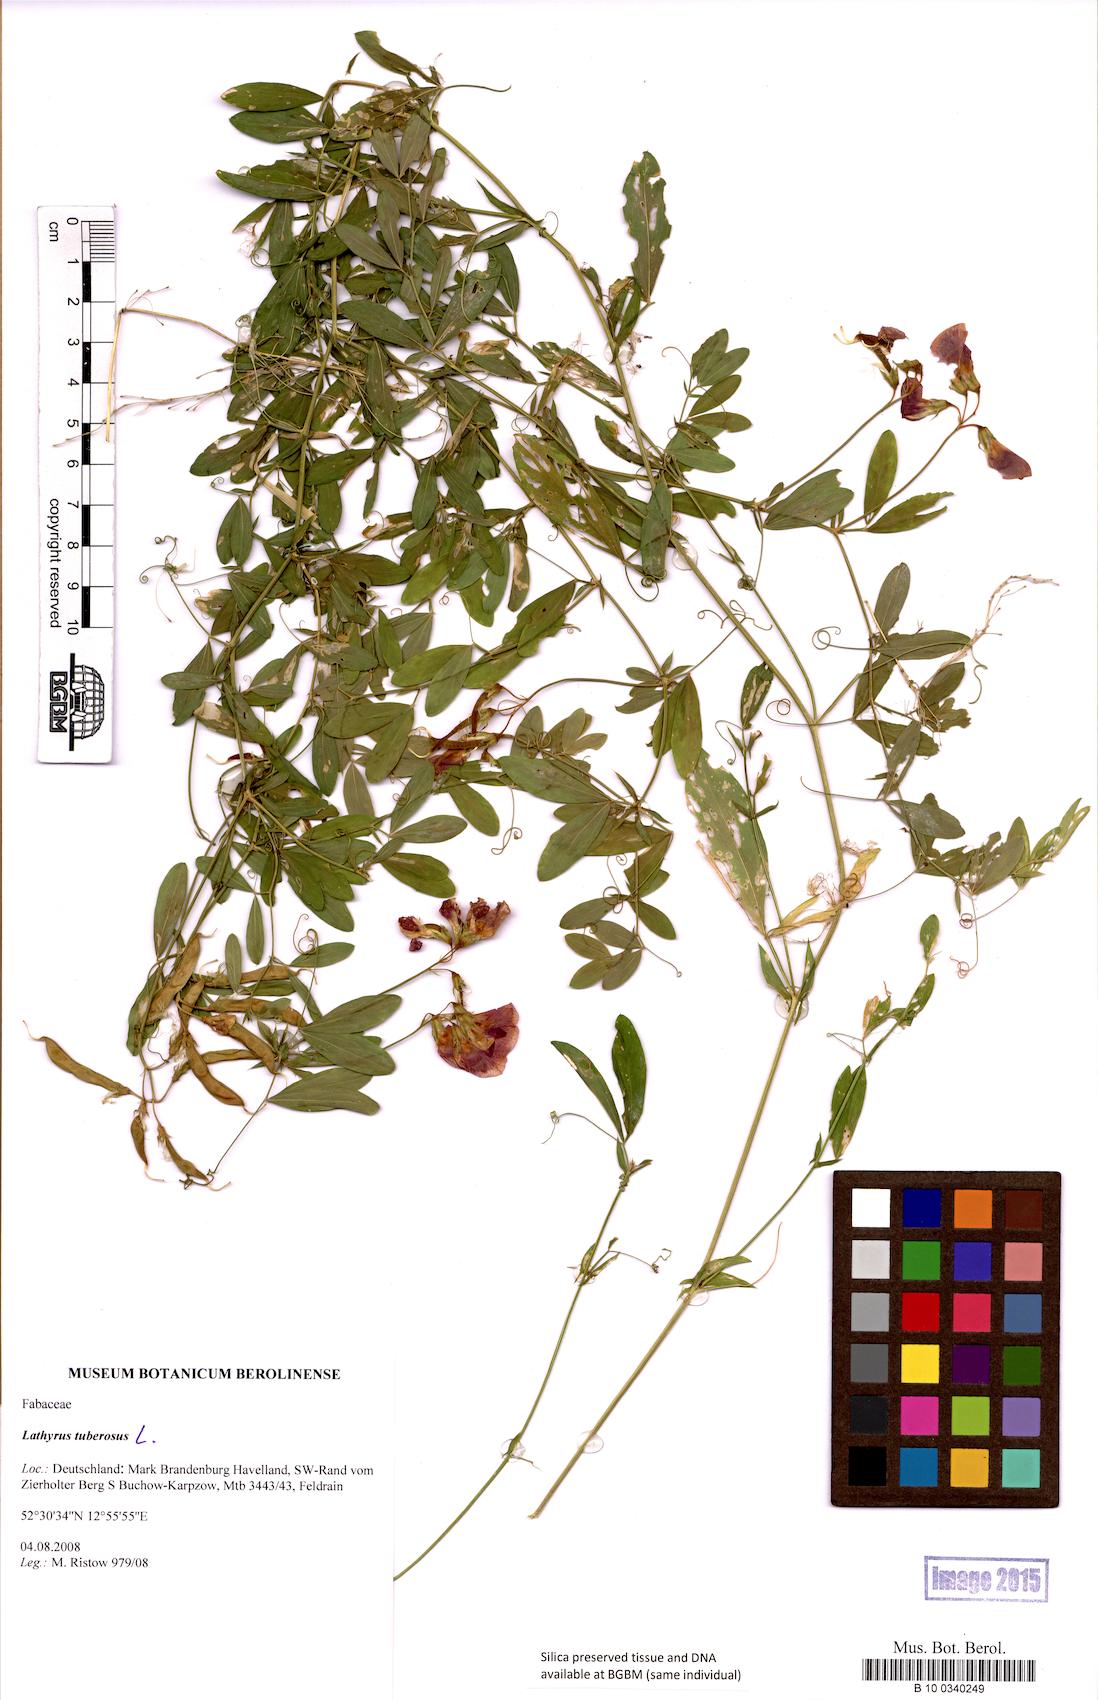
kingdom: Plantae
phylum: Tracheophyta
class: Magnoliopsida
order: Fabales
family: Fabaceae
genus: Lathyrus
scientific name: Lathyrus tuberosus
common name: Tuberous pea
